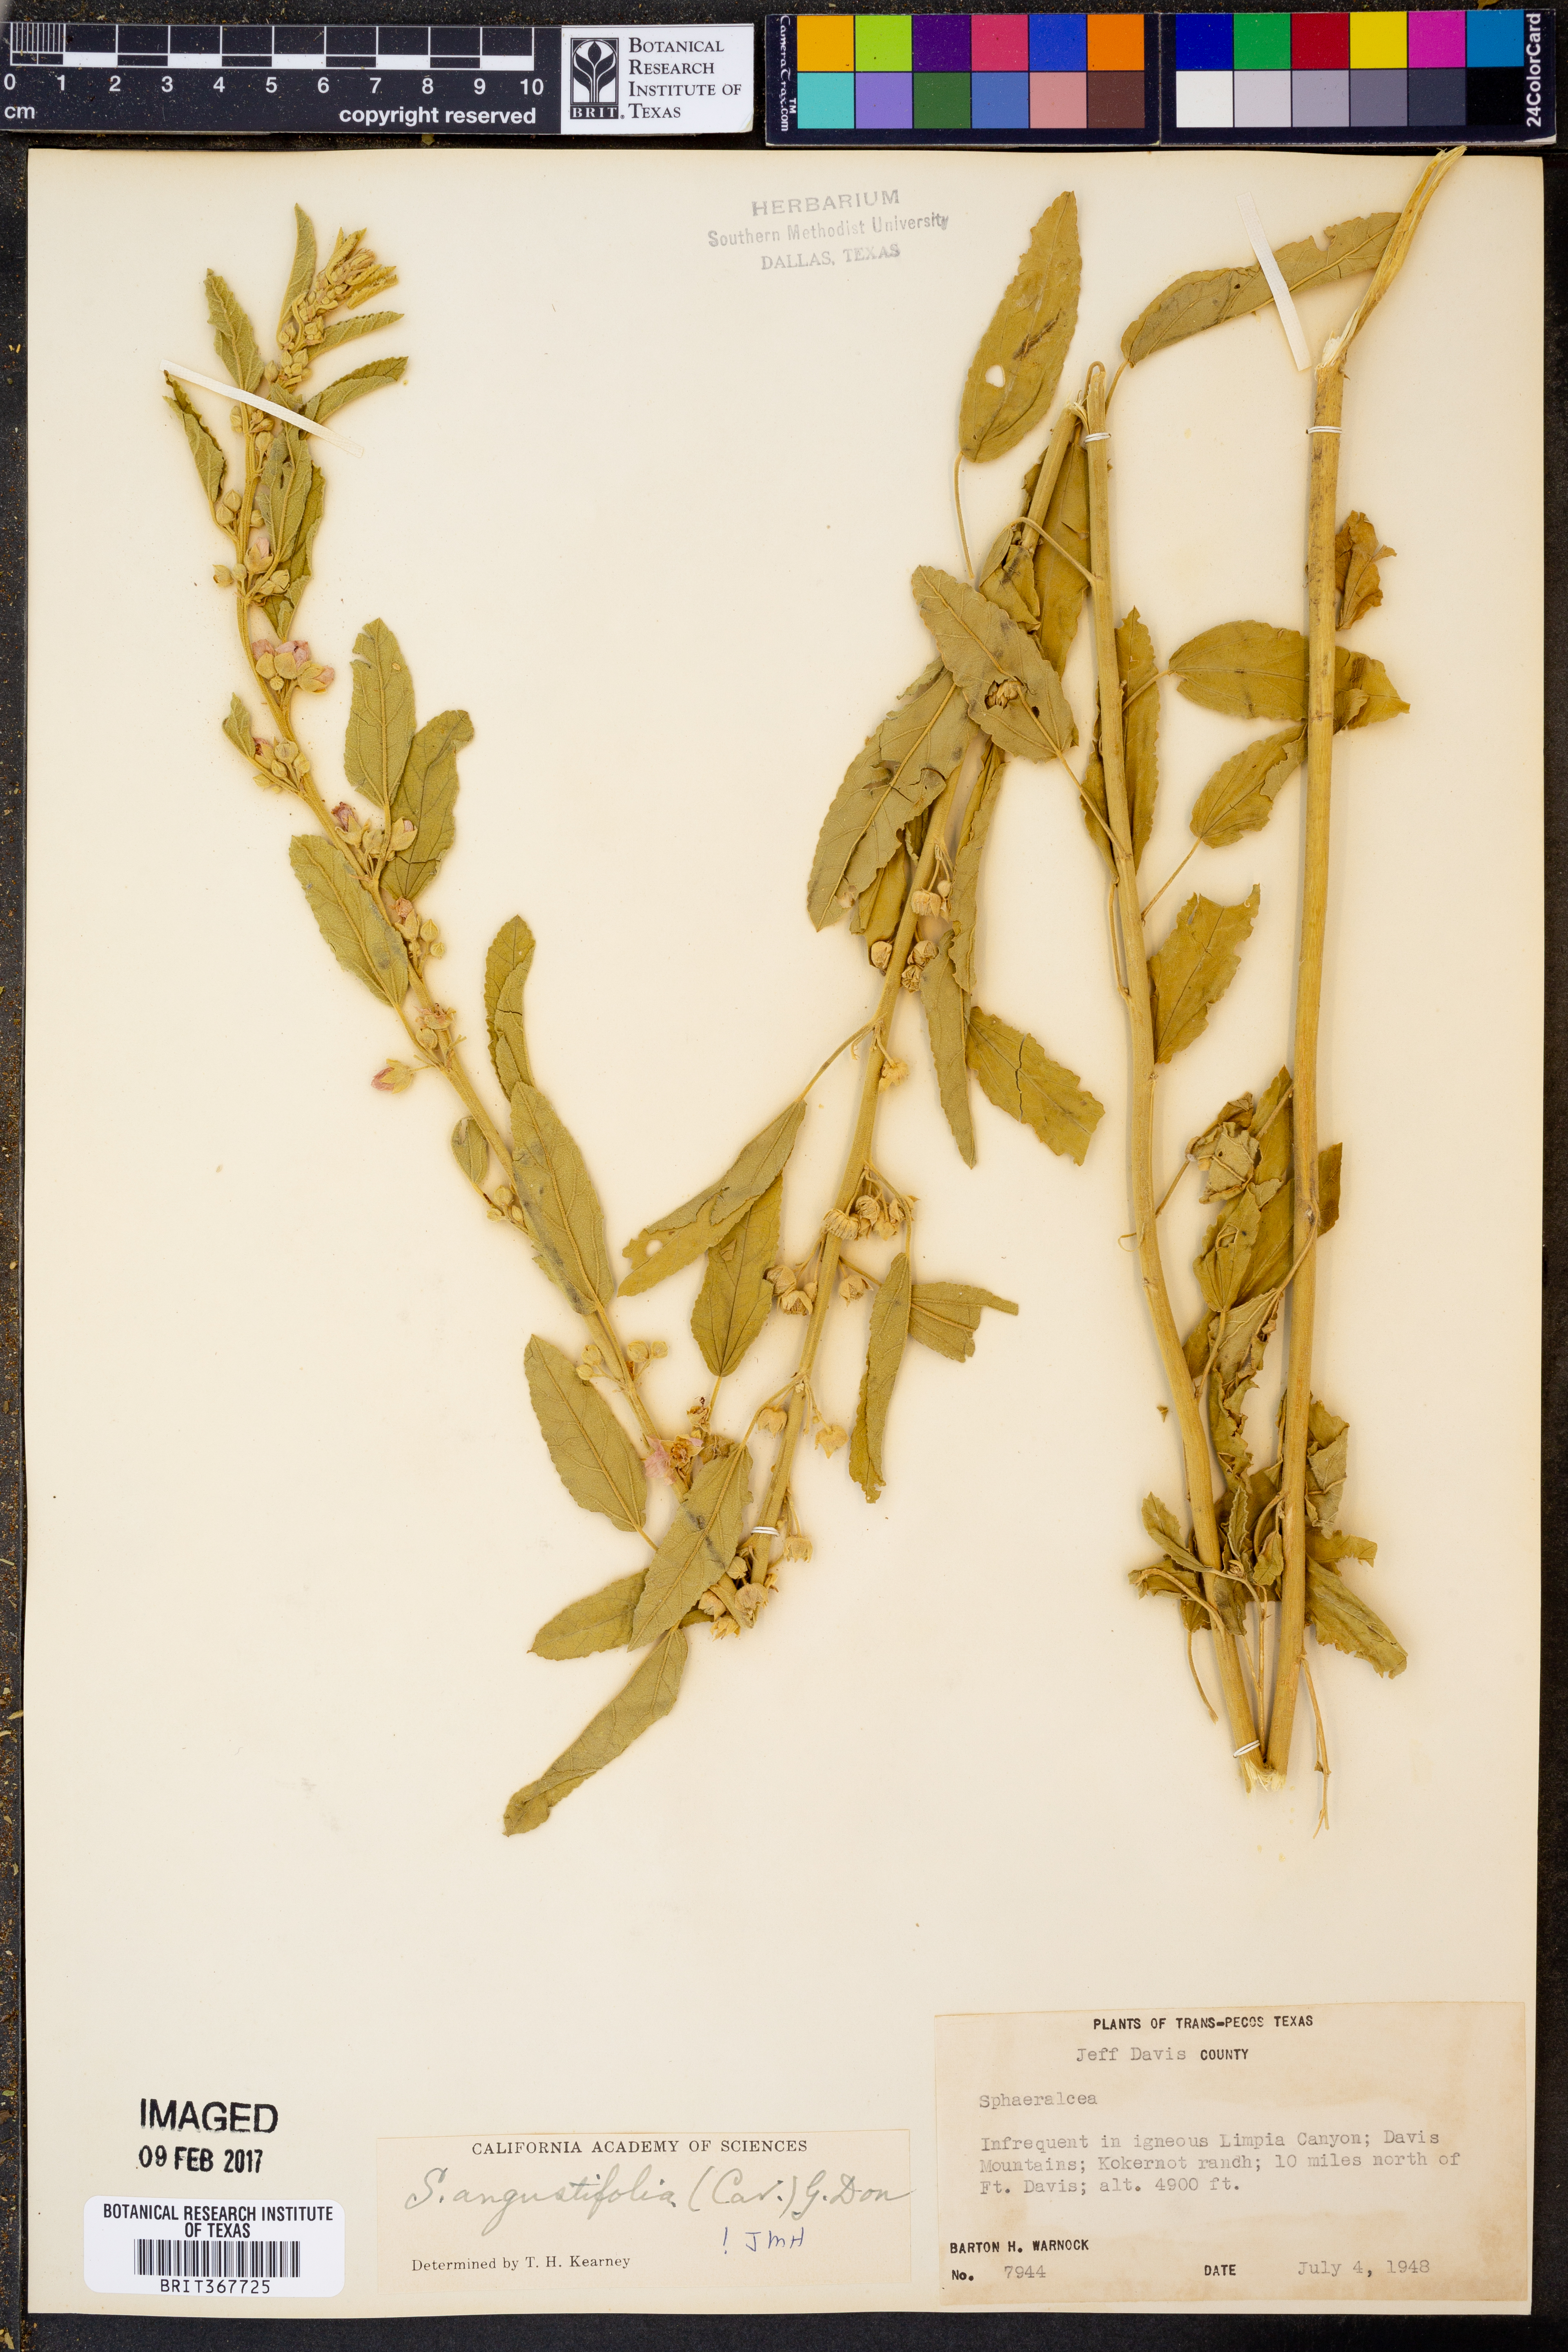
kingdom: Plantae
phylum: Tracheophyta
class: Magnoliopsida
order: Malvales
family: Malvaceae
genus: Sphaeralcea
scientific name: Sphaeralcea angustifolia
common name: Copper globe-mallow
